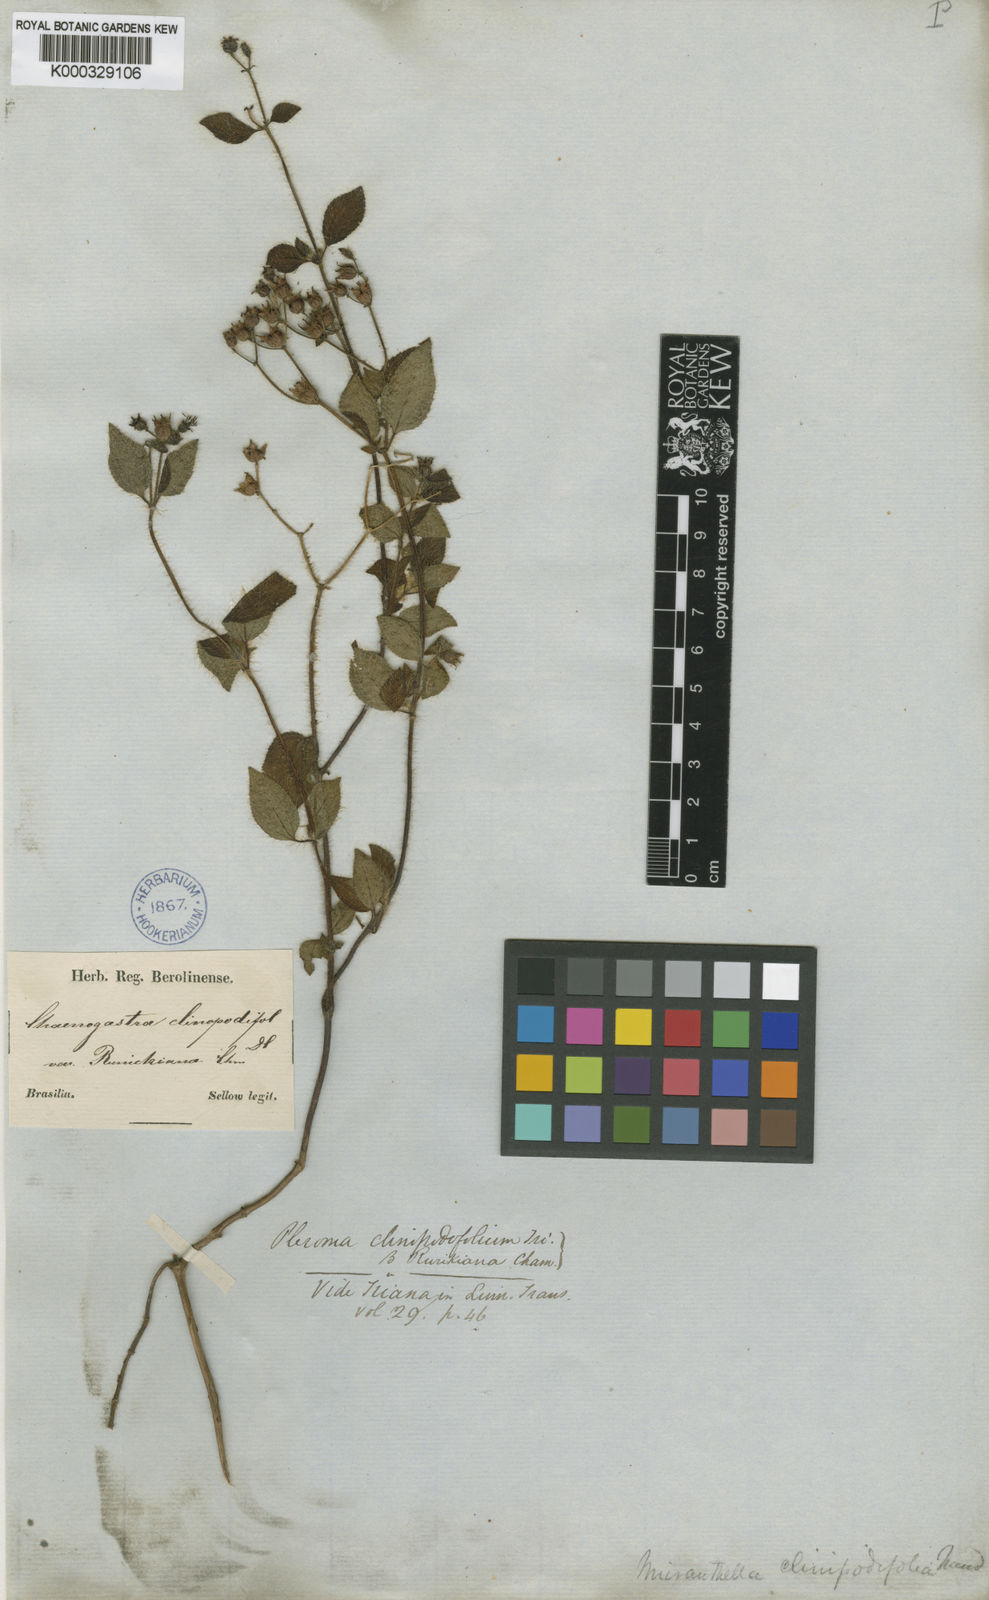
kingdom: Plantae
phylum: Tracheophyta
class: Magnoliopsida
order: Myrtales
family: Melastomataceae
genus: Chaetogastra
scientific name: Chaetogastra clinopodifolia
